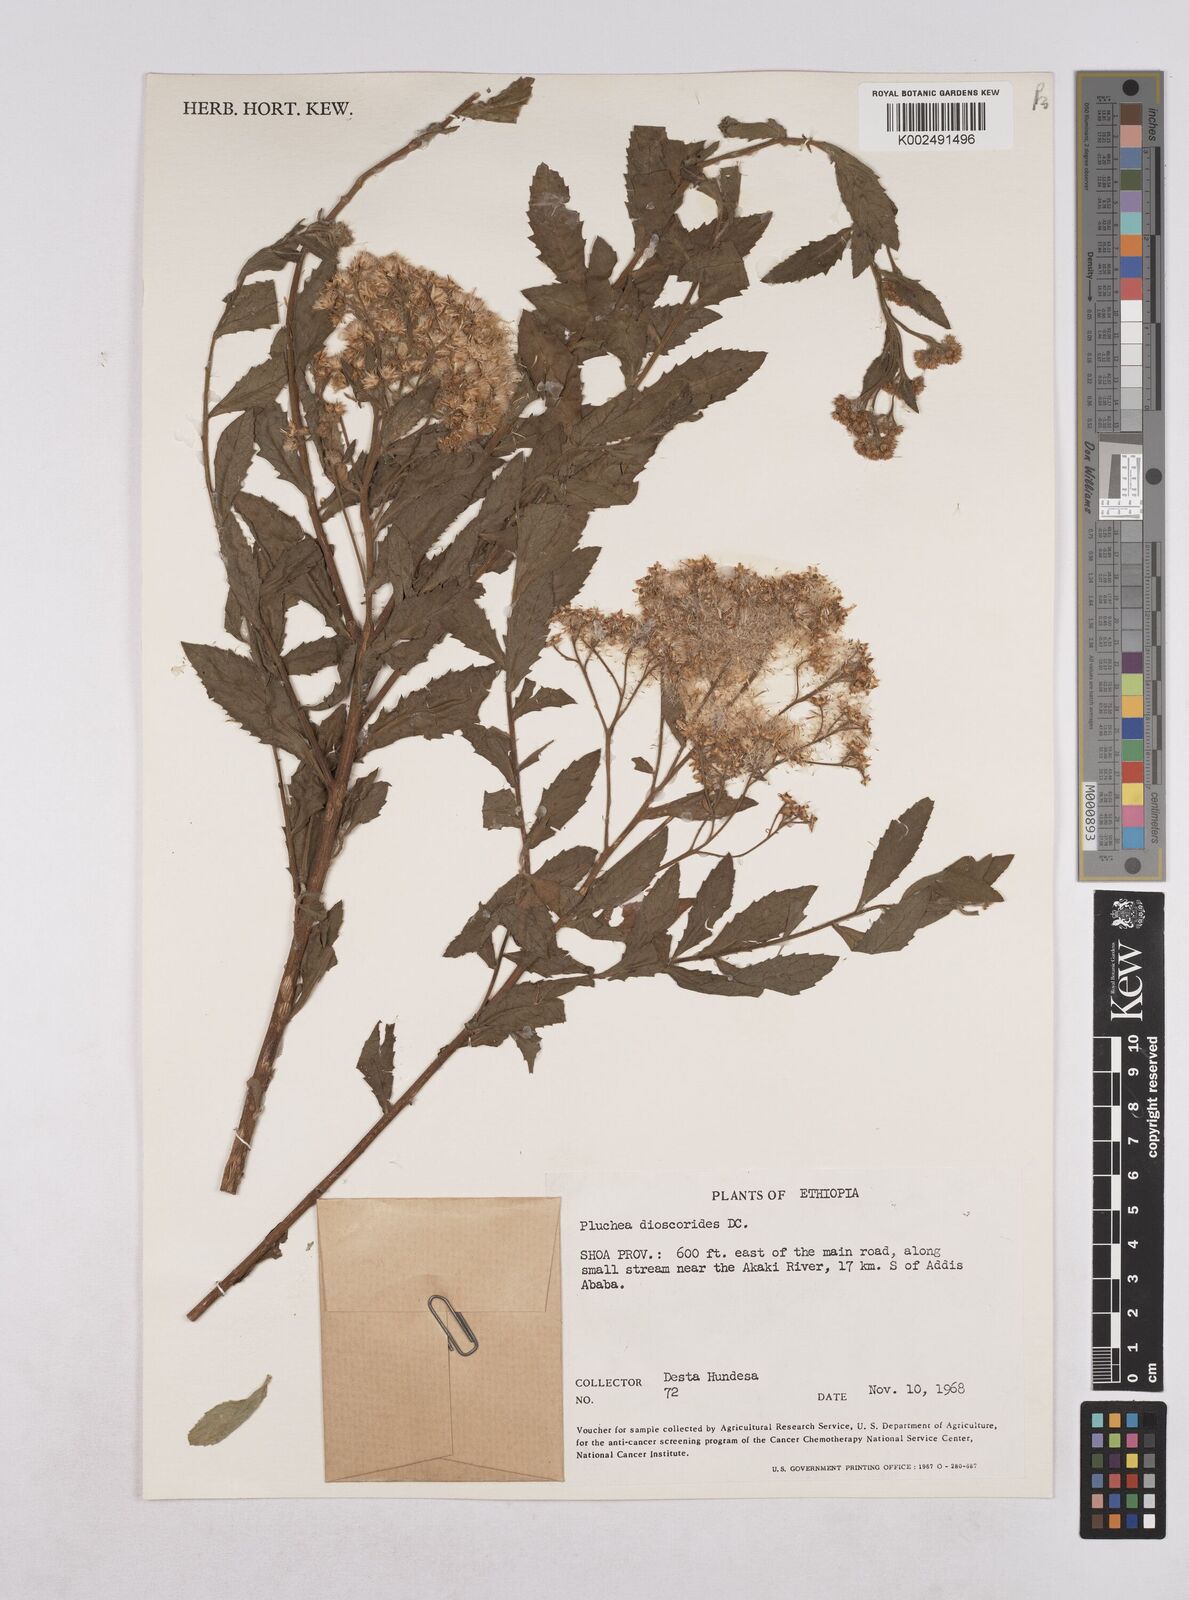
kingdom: Plantae
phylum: Tracheophyta
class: Magnoliopsida
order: Asterales
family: Asteraceae
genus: Pluchea
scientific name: Pluchea dioscoridis
